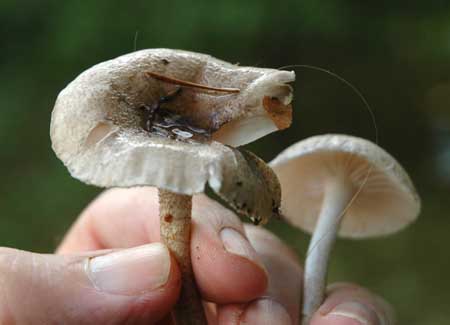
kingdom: Fungi
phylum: Basidiomycota
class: Agaricomycetes
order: Agaricales
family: Hygrophoraceae
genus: Hygrophorus
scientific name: Hygrophorus pustulatus
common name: mørkprikket sneglehat
